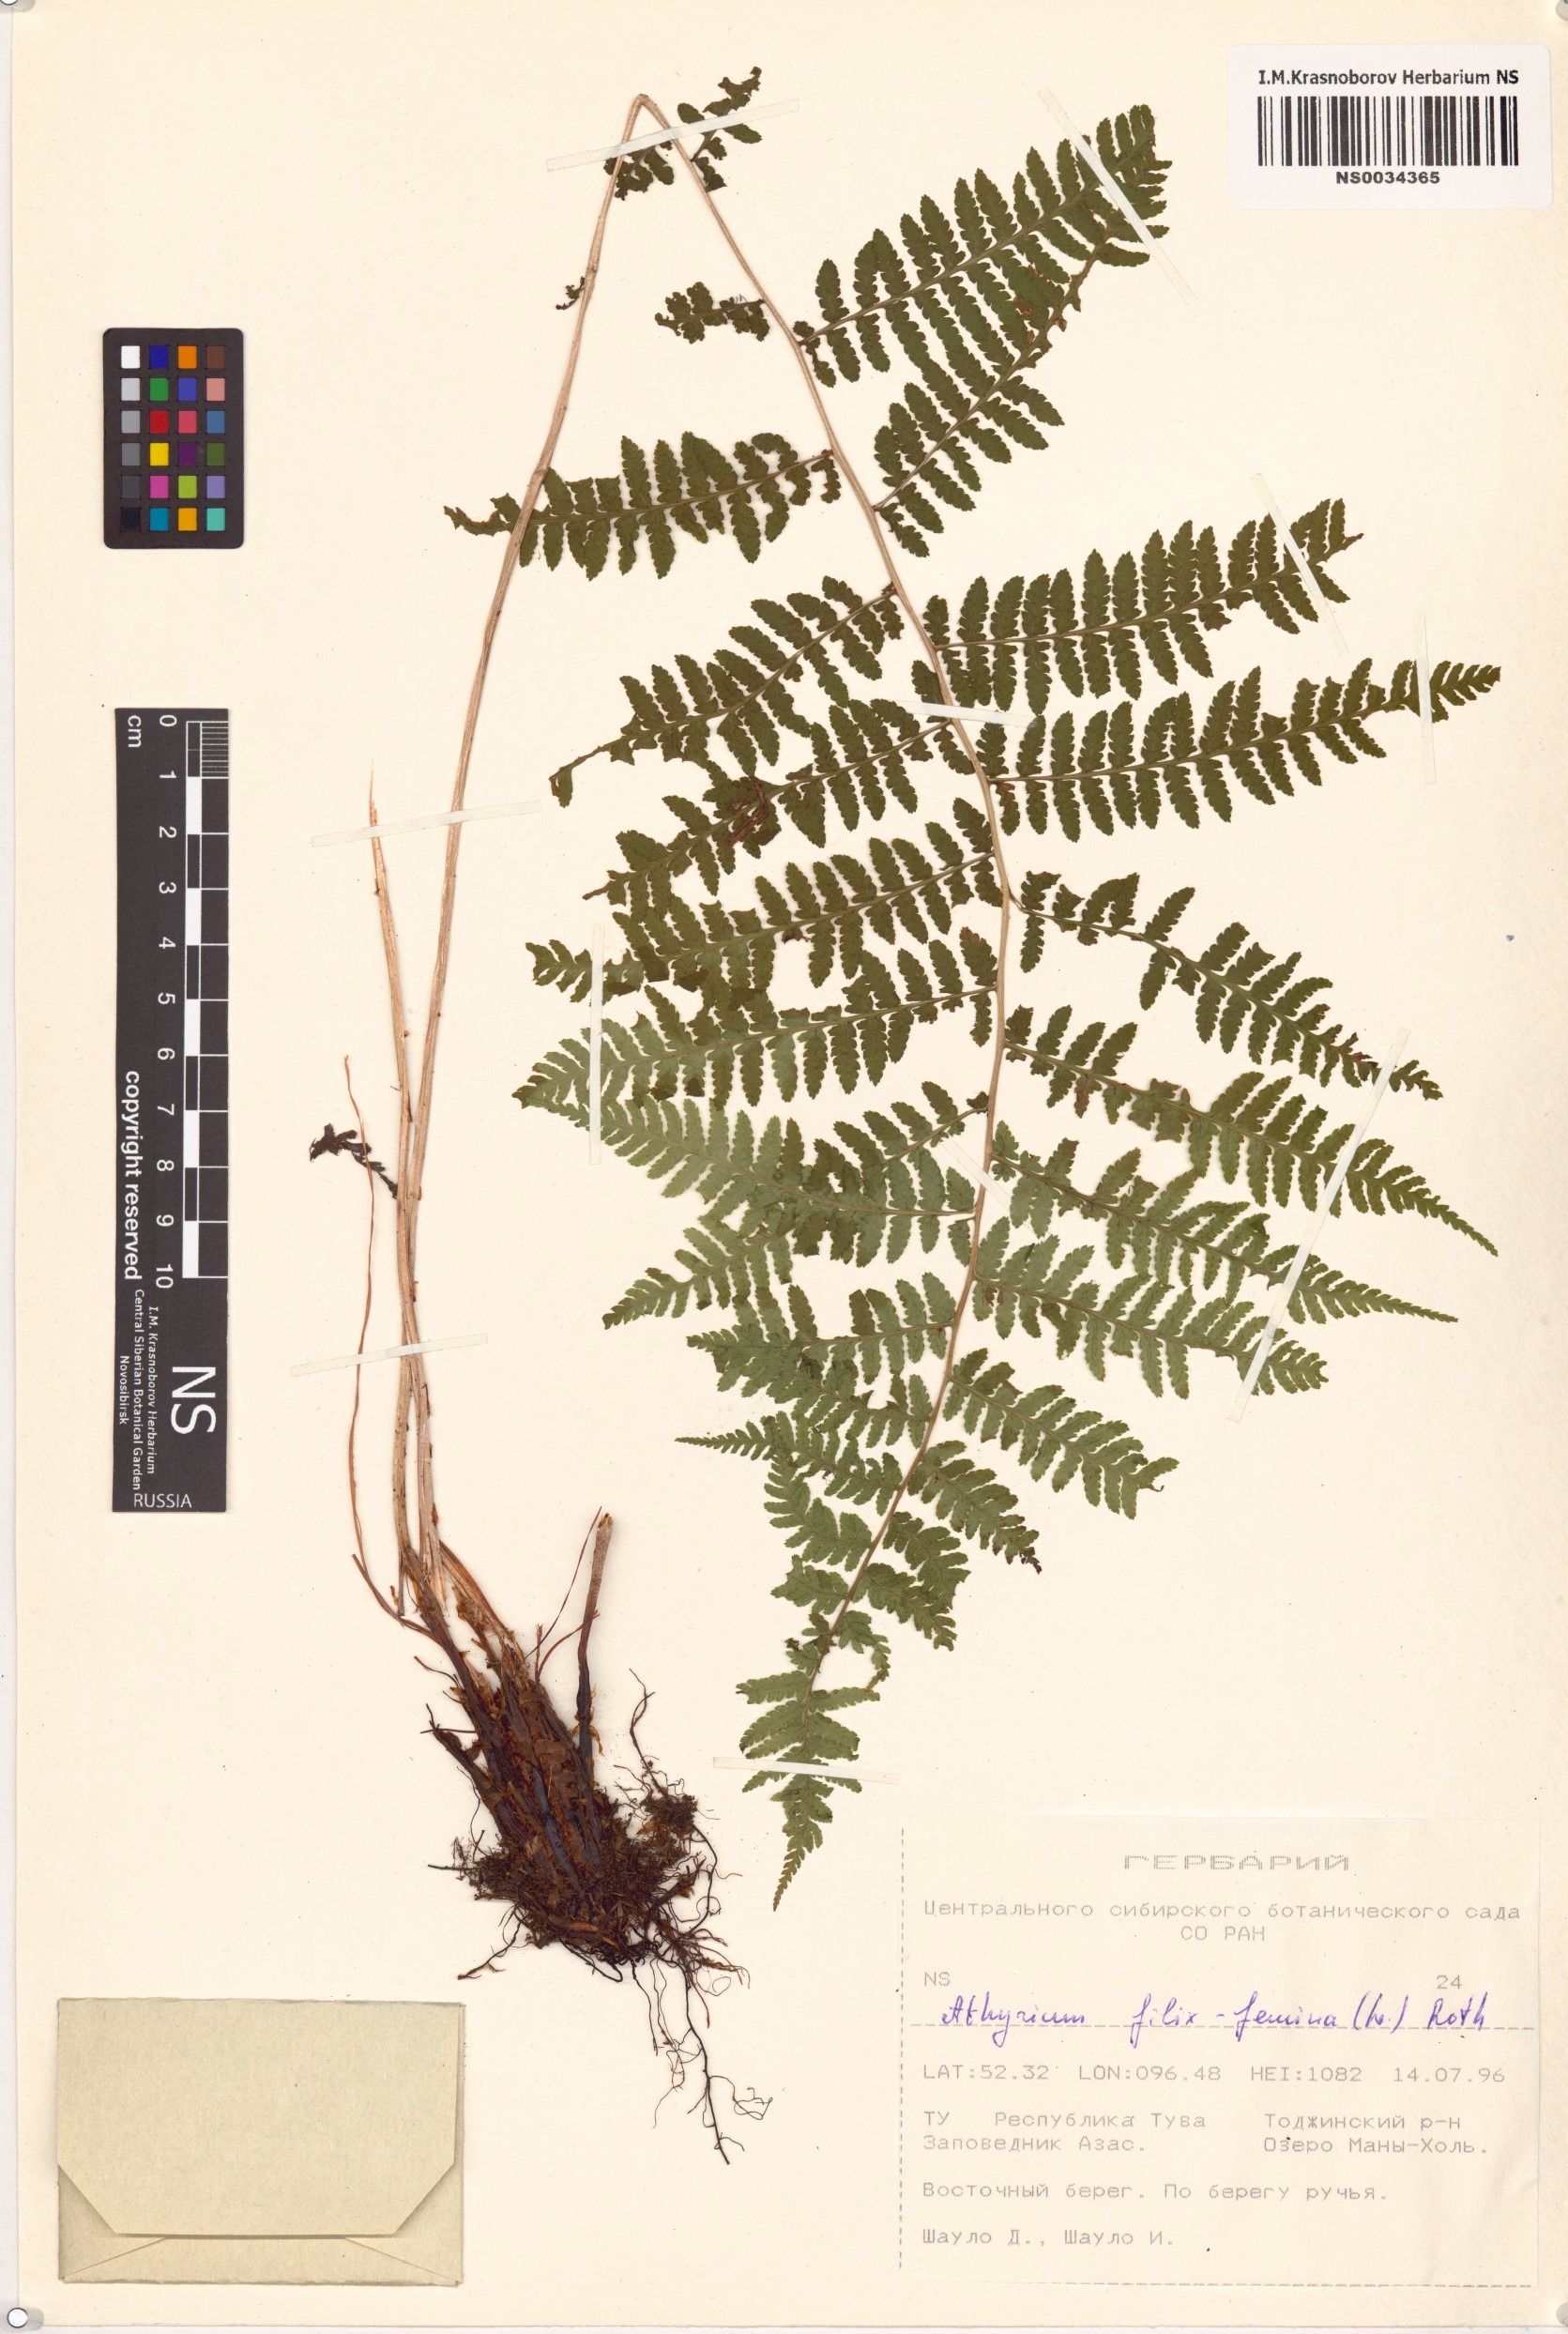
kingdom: Plantae
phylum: Tracheophyta
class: Polypodiopsida
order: Polypodiales
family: Athyriaceae
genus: Athyrium
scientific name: Athyrium filix-femina
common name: Lady fern
